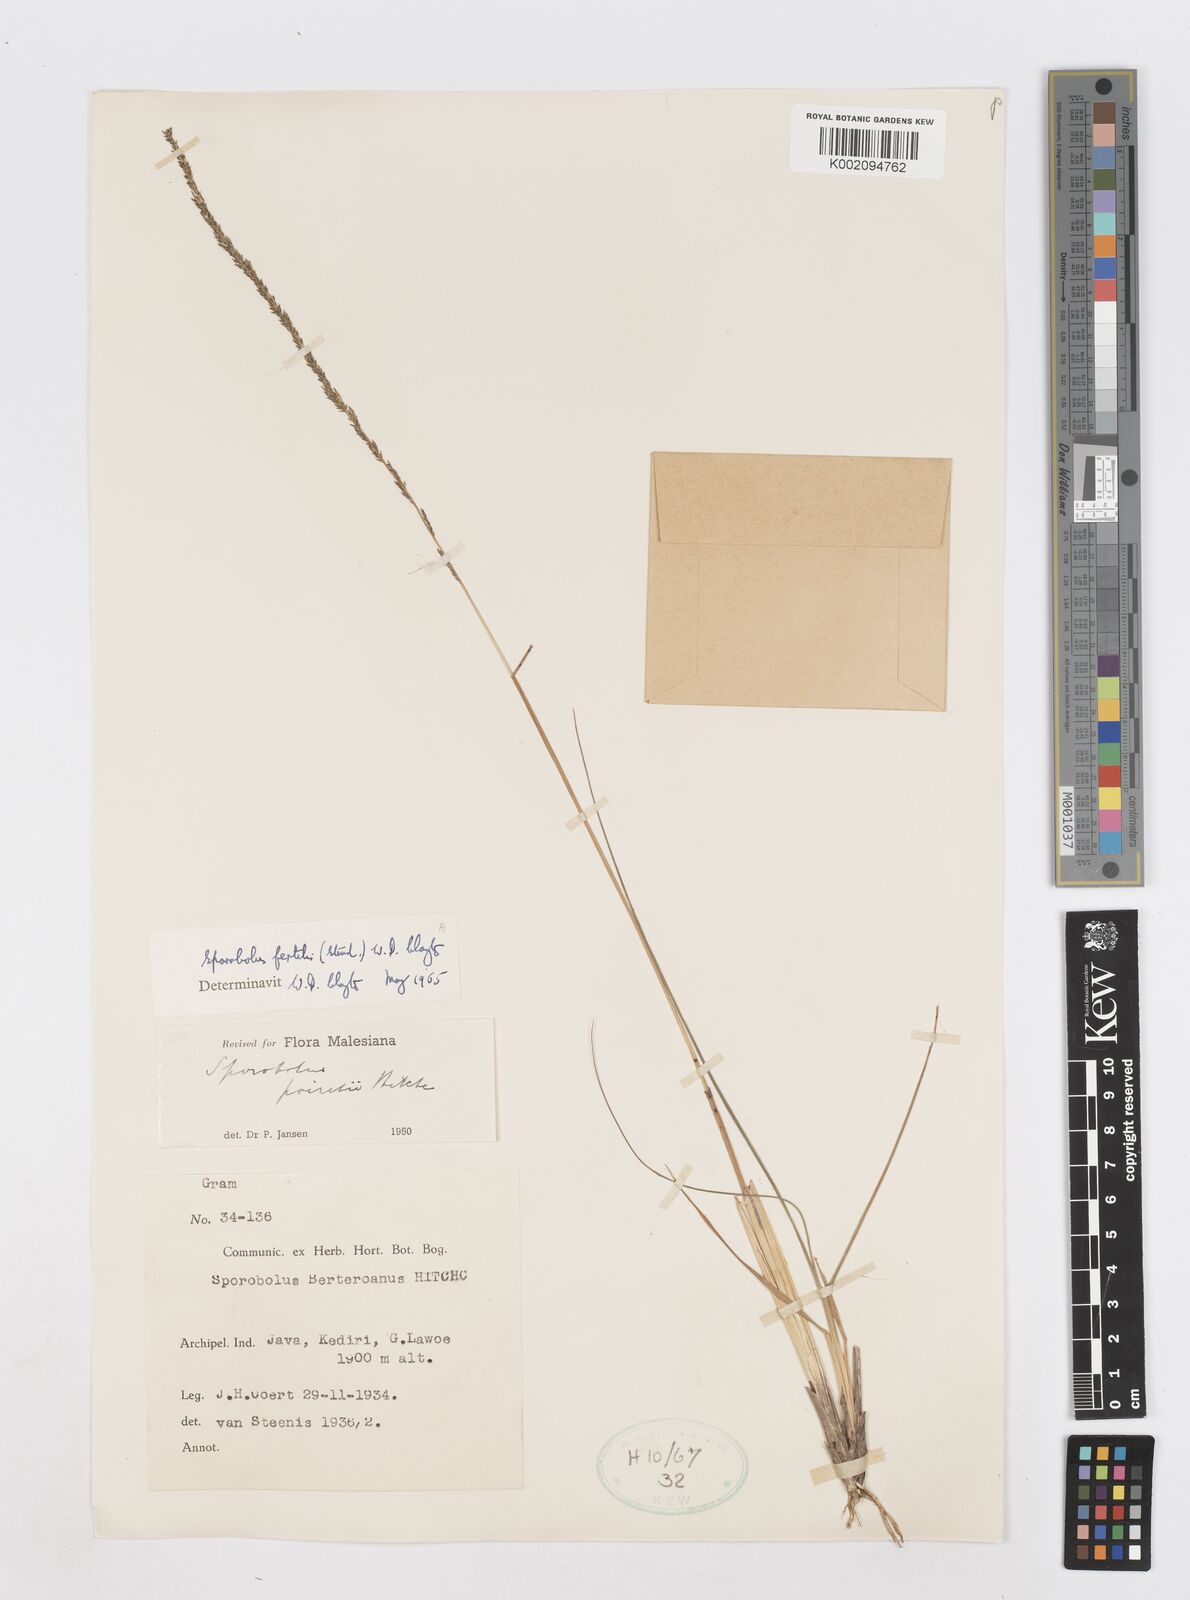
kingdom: Plantae
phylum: Tracheophyta
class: Liliopsida
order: Poales
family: Poaceae
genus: Sporobolus
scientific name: Sporobolus fertilis
